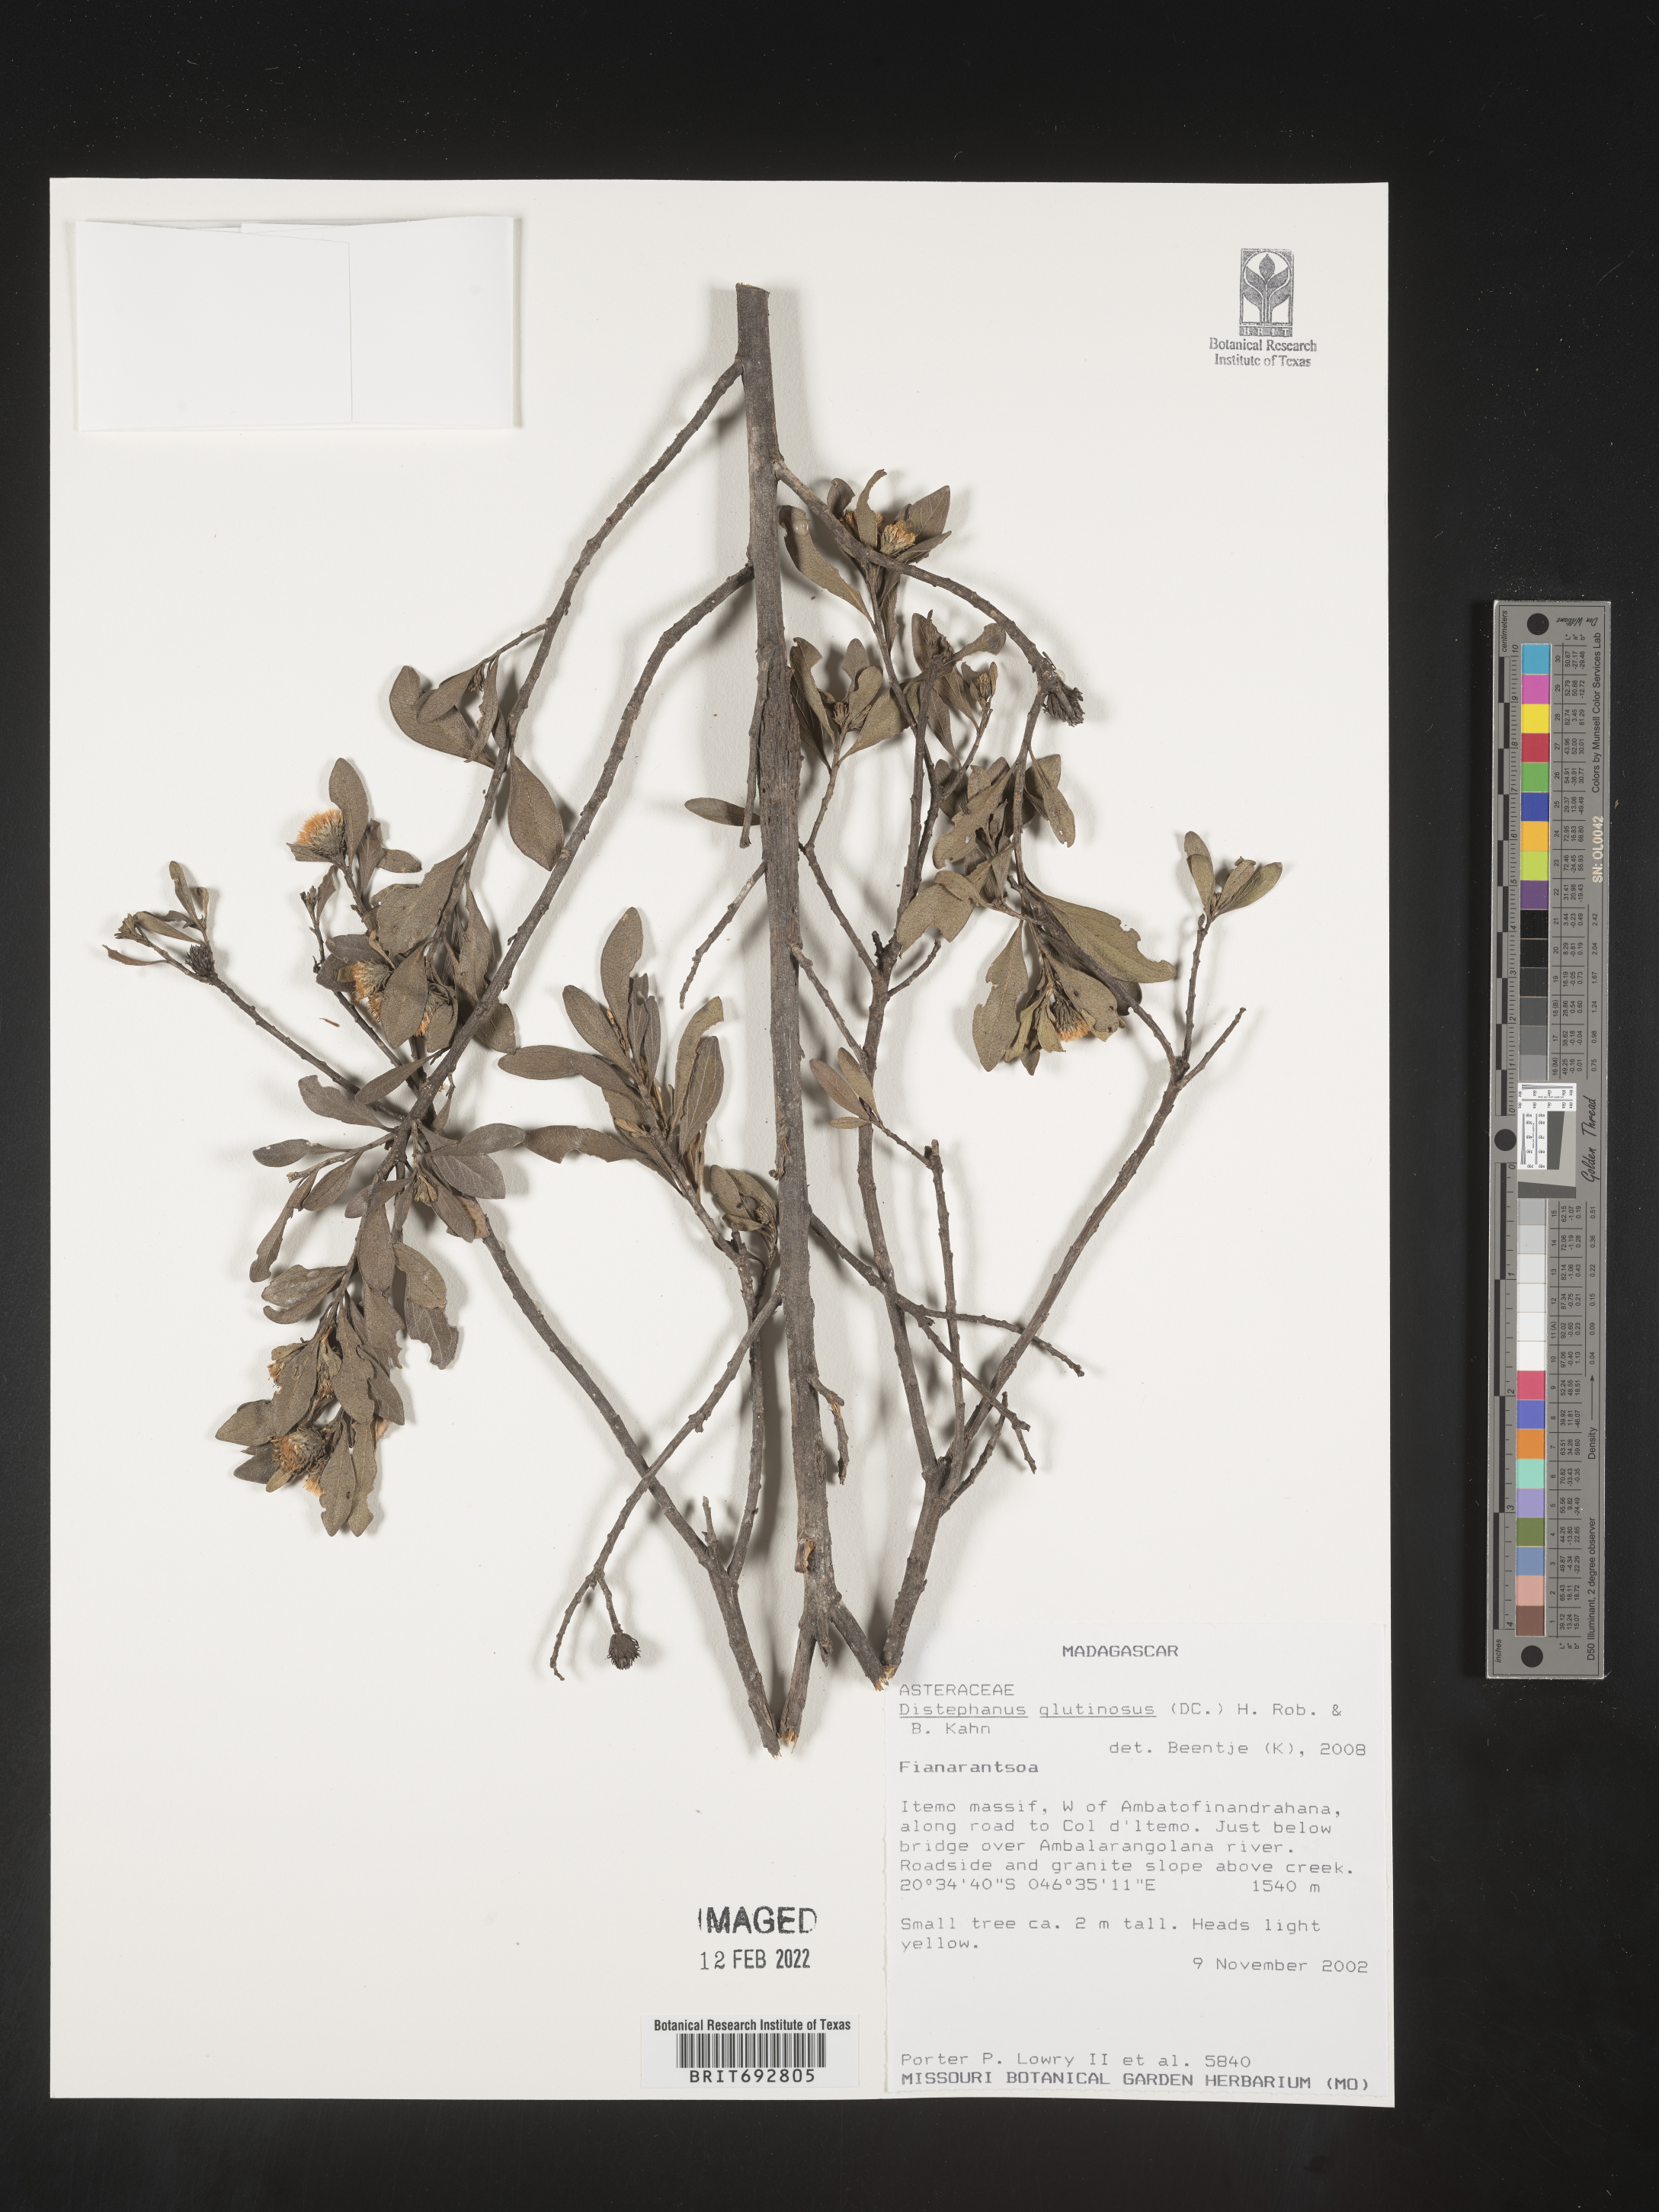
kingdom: Plantae
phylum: Tracheophyta
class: Magnoliopsida
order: Asterales
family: Asteraceae
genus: Distephanus
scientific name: Distephanus glutinosus
